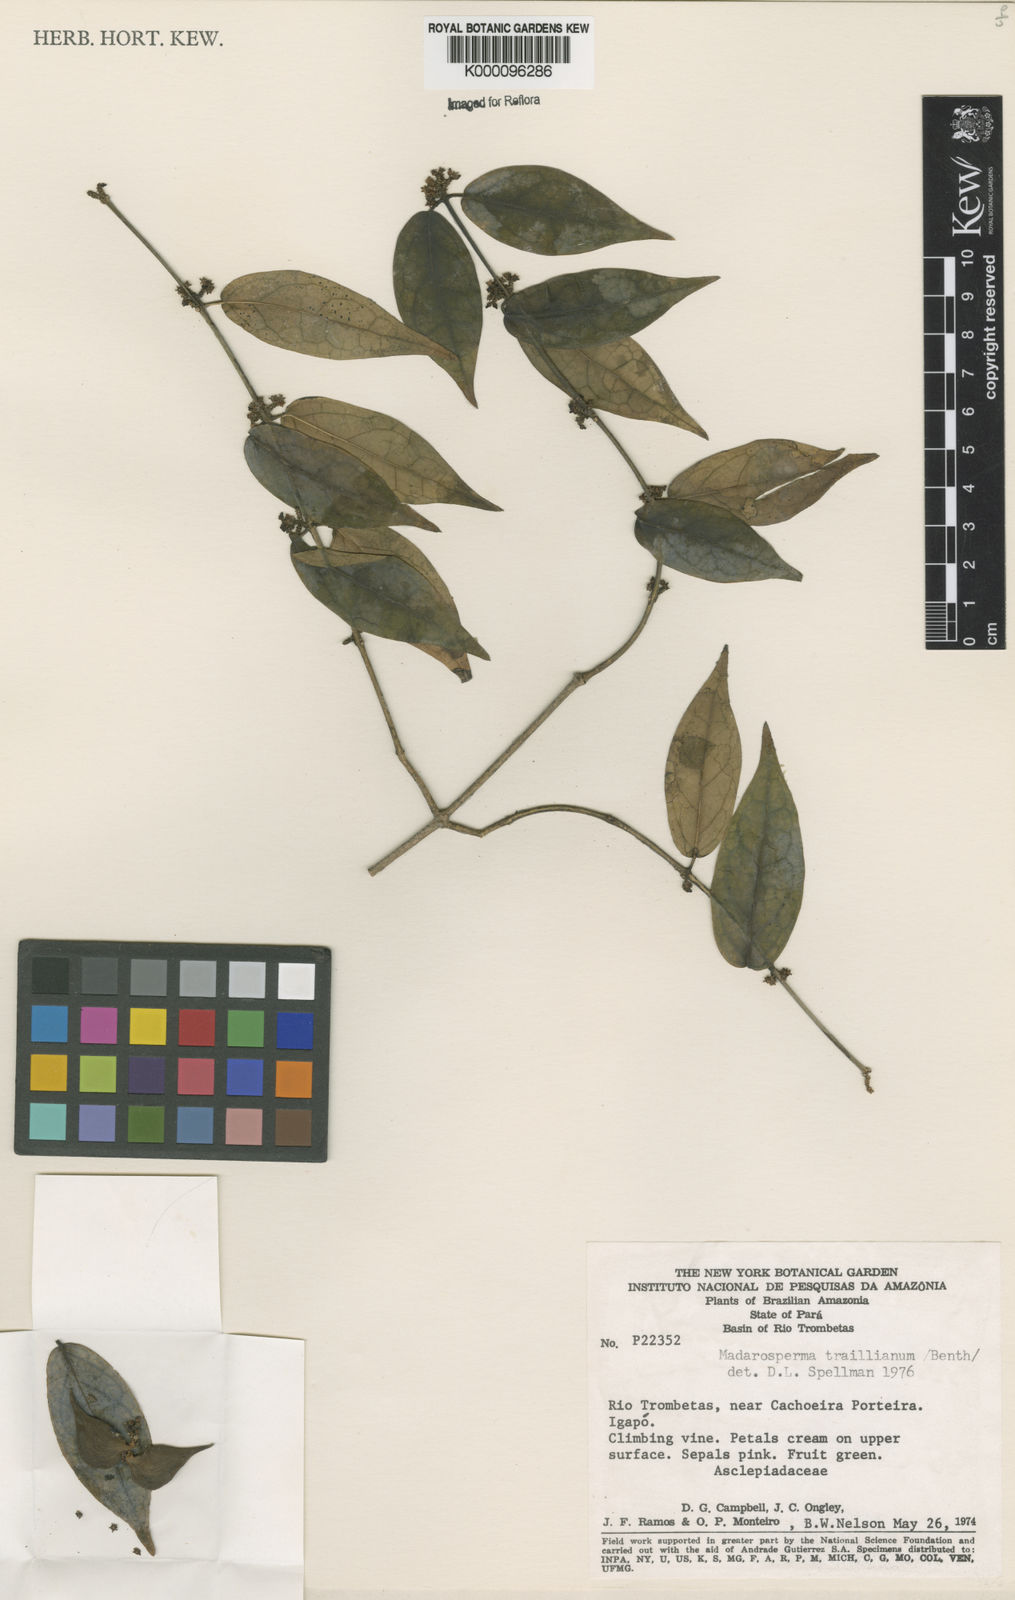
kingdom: Plantae
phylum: Tracheophyta
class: Magnoliopsida
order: Gentianales
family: Apocynaceae
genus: Tassadia
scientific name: Tassadia obovata
